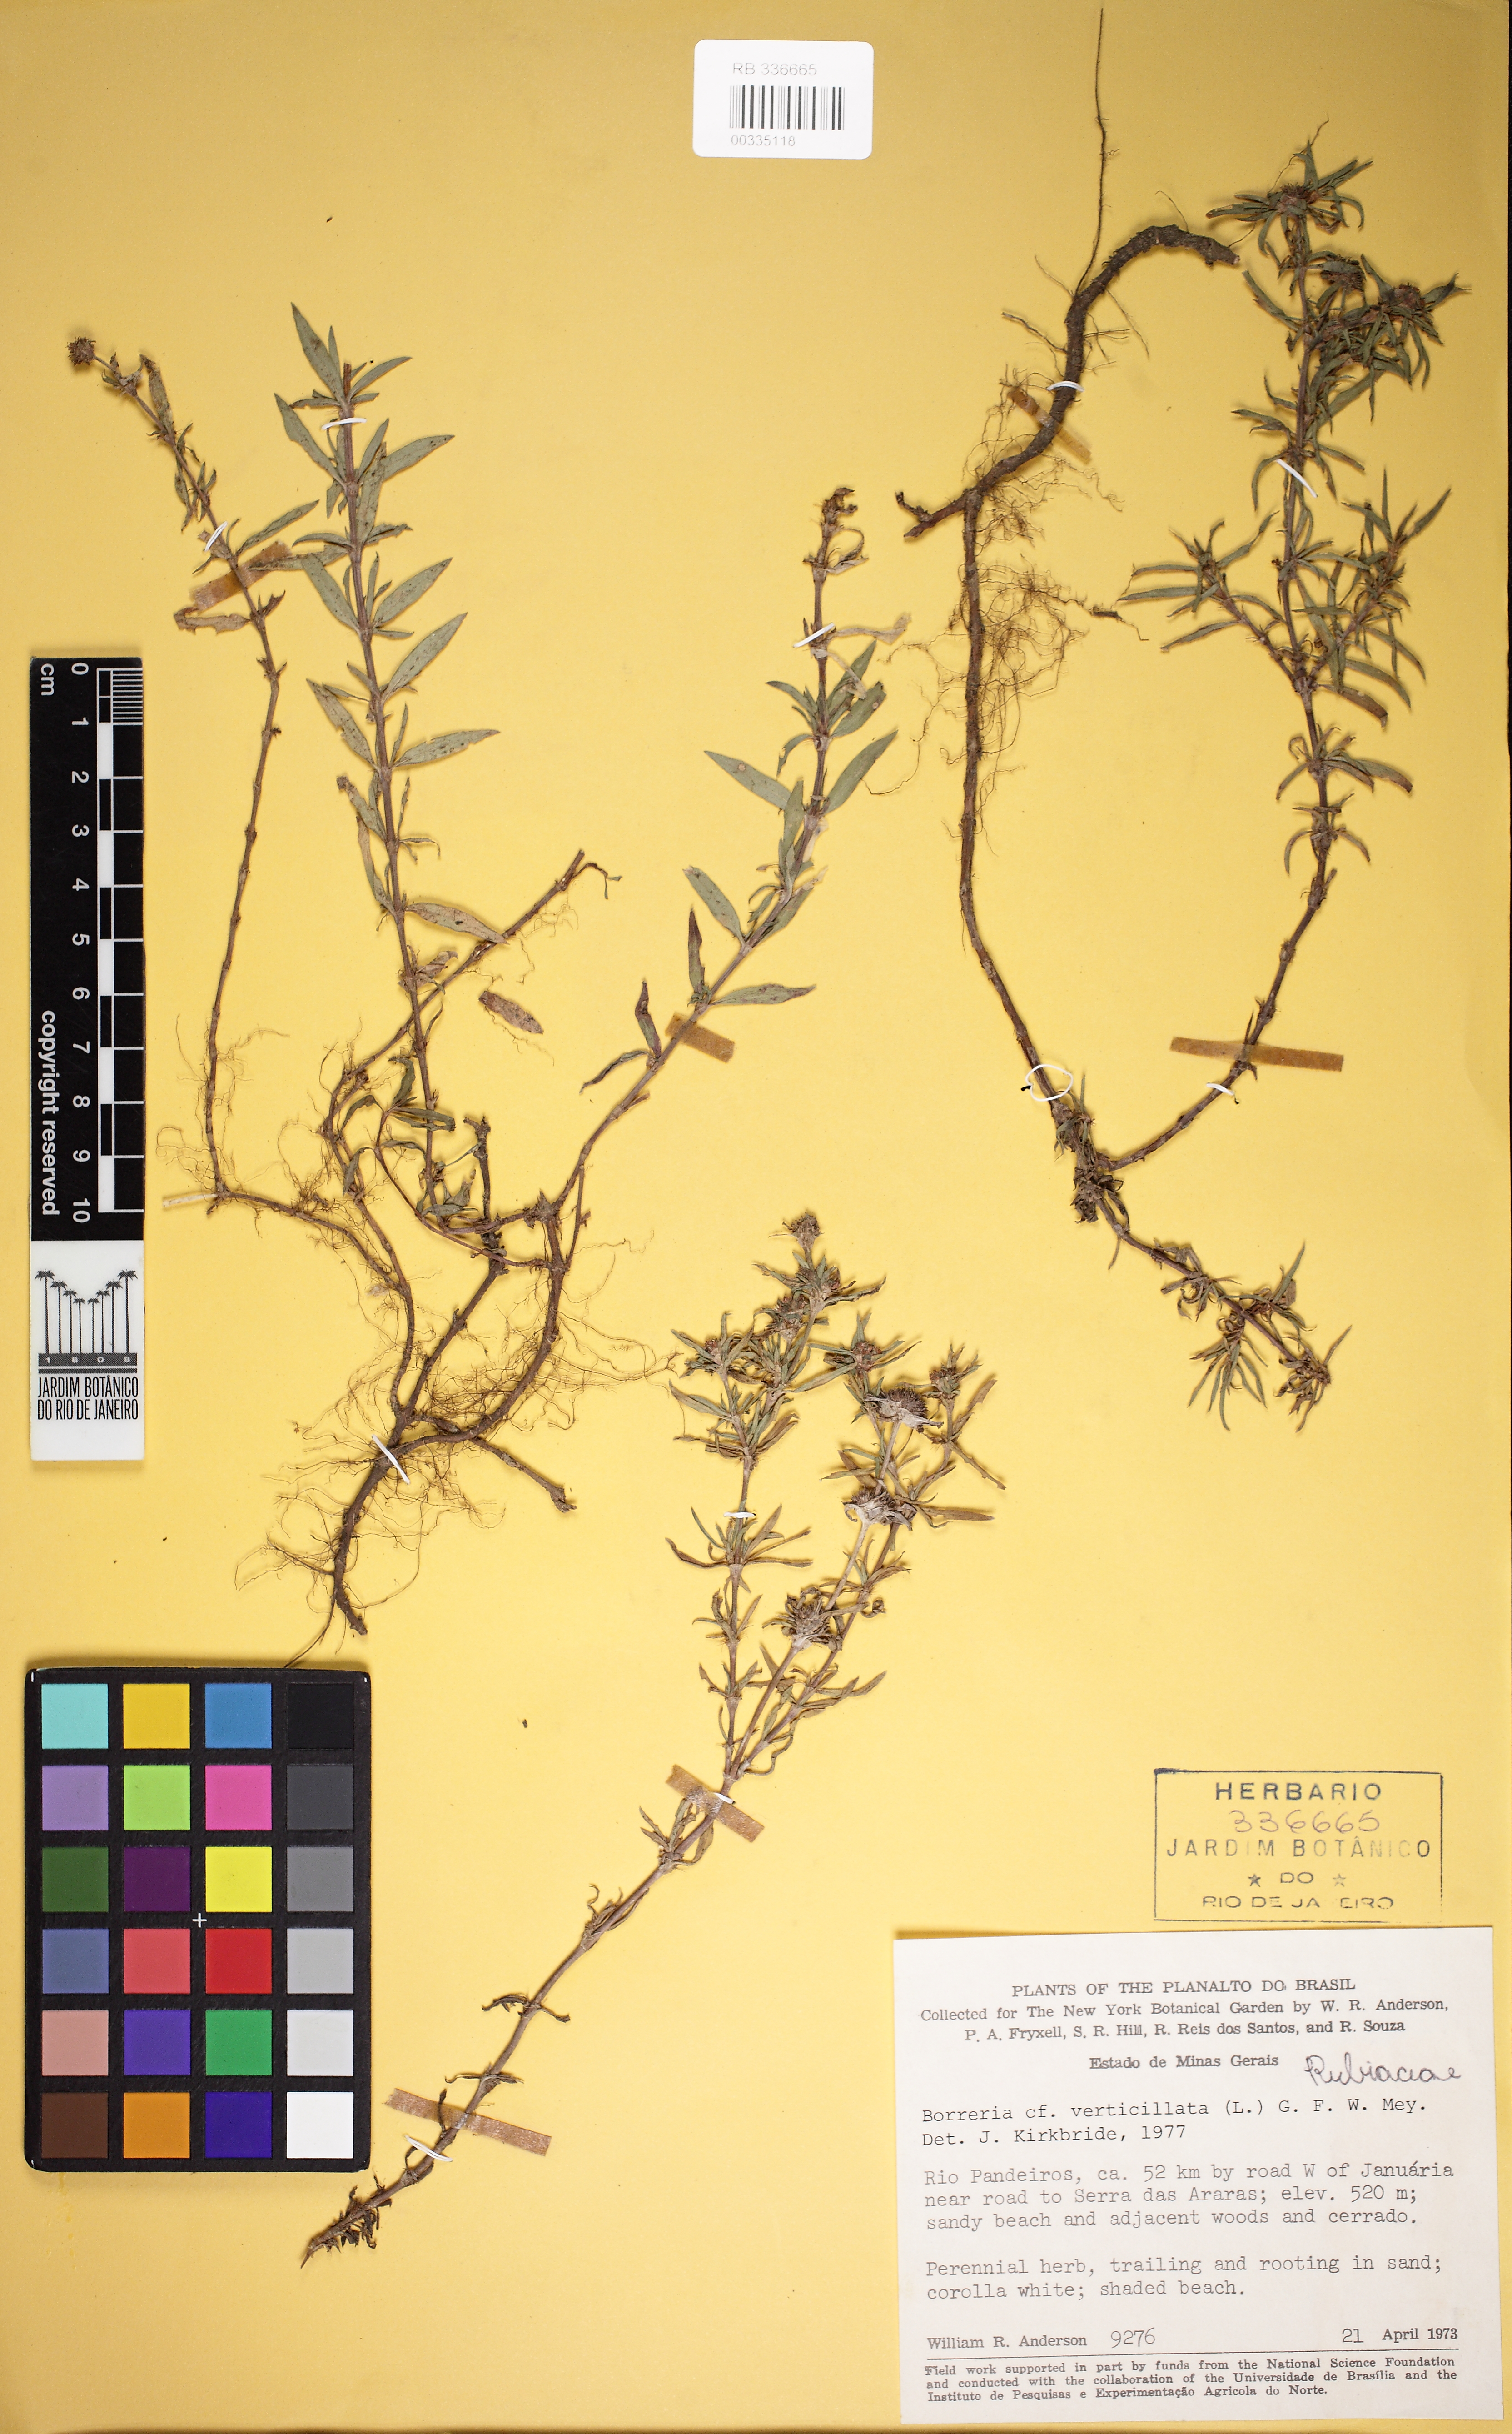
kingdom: Plantae
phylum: Tracheophyta
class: Magnoliopsida
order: Gentianales
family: Rubiaceae
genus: Spermacoce
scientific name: Spermacoce verticillata
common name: Shrubby false buttonweed
